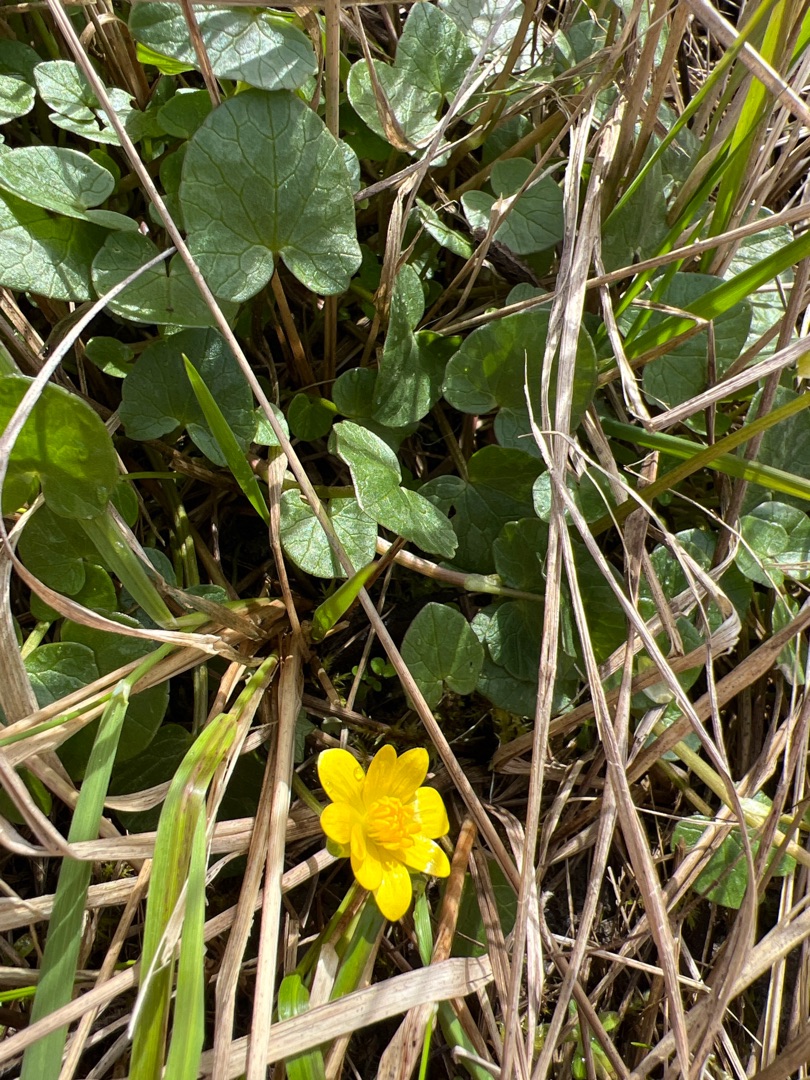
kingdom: Plantae
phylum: Tracheophyta
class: Magnoliopsida
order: Ranunculales
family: Ranunculaceae
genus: Ficaria
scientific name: Ficaria verna
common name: Almindelig vorterod
